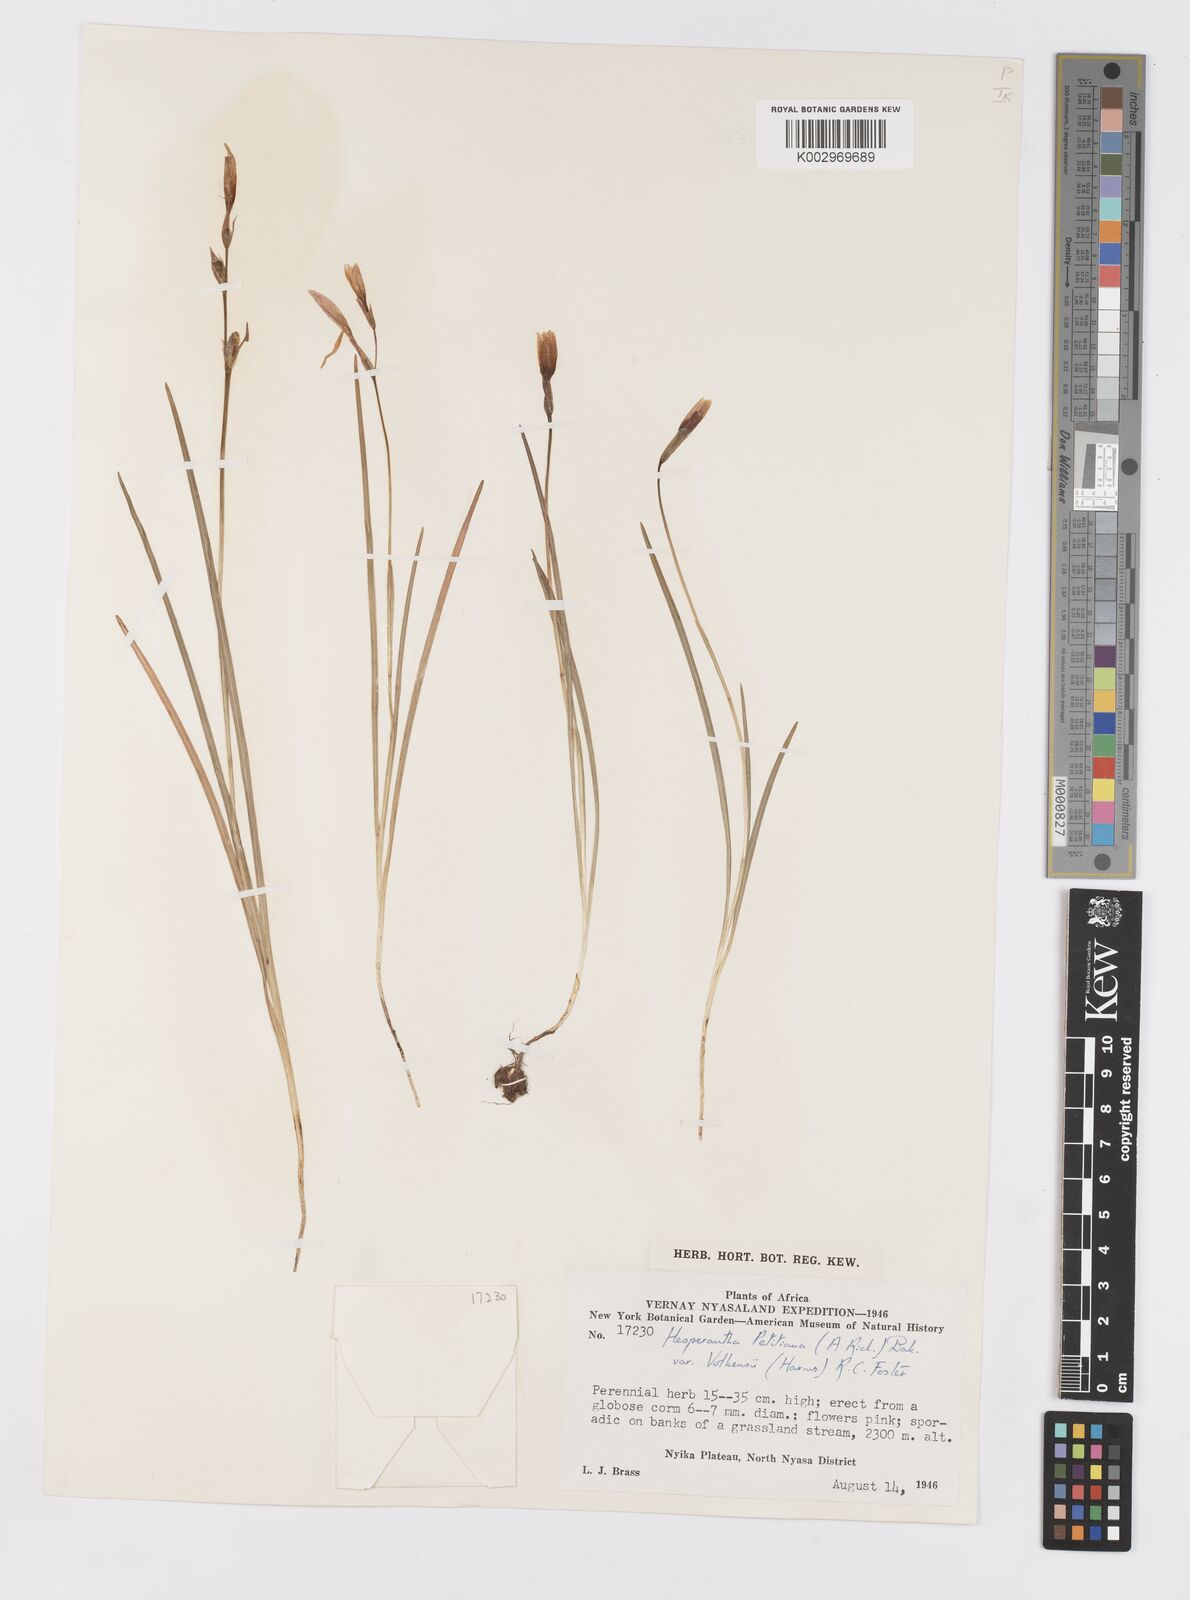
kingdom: Plantae
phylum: Tracheophyta
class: Liliopsida
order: Asparagales
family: Iridaceae
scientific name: Iridaceae
